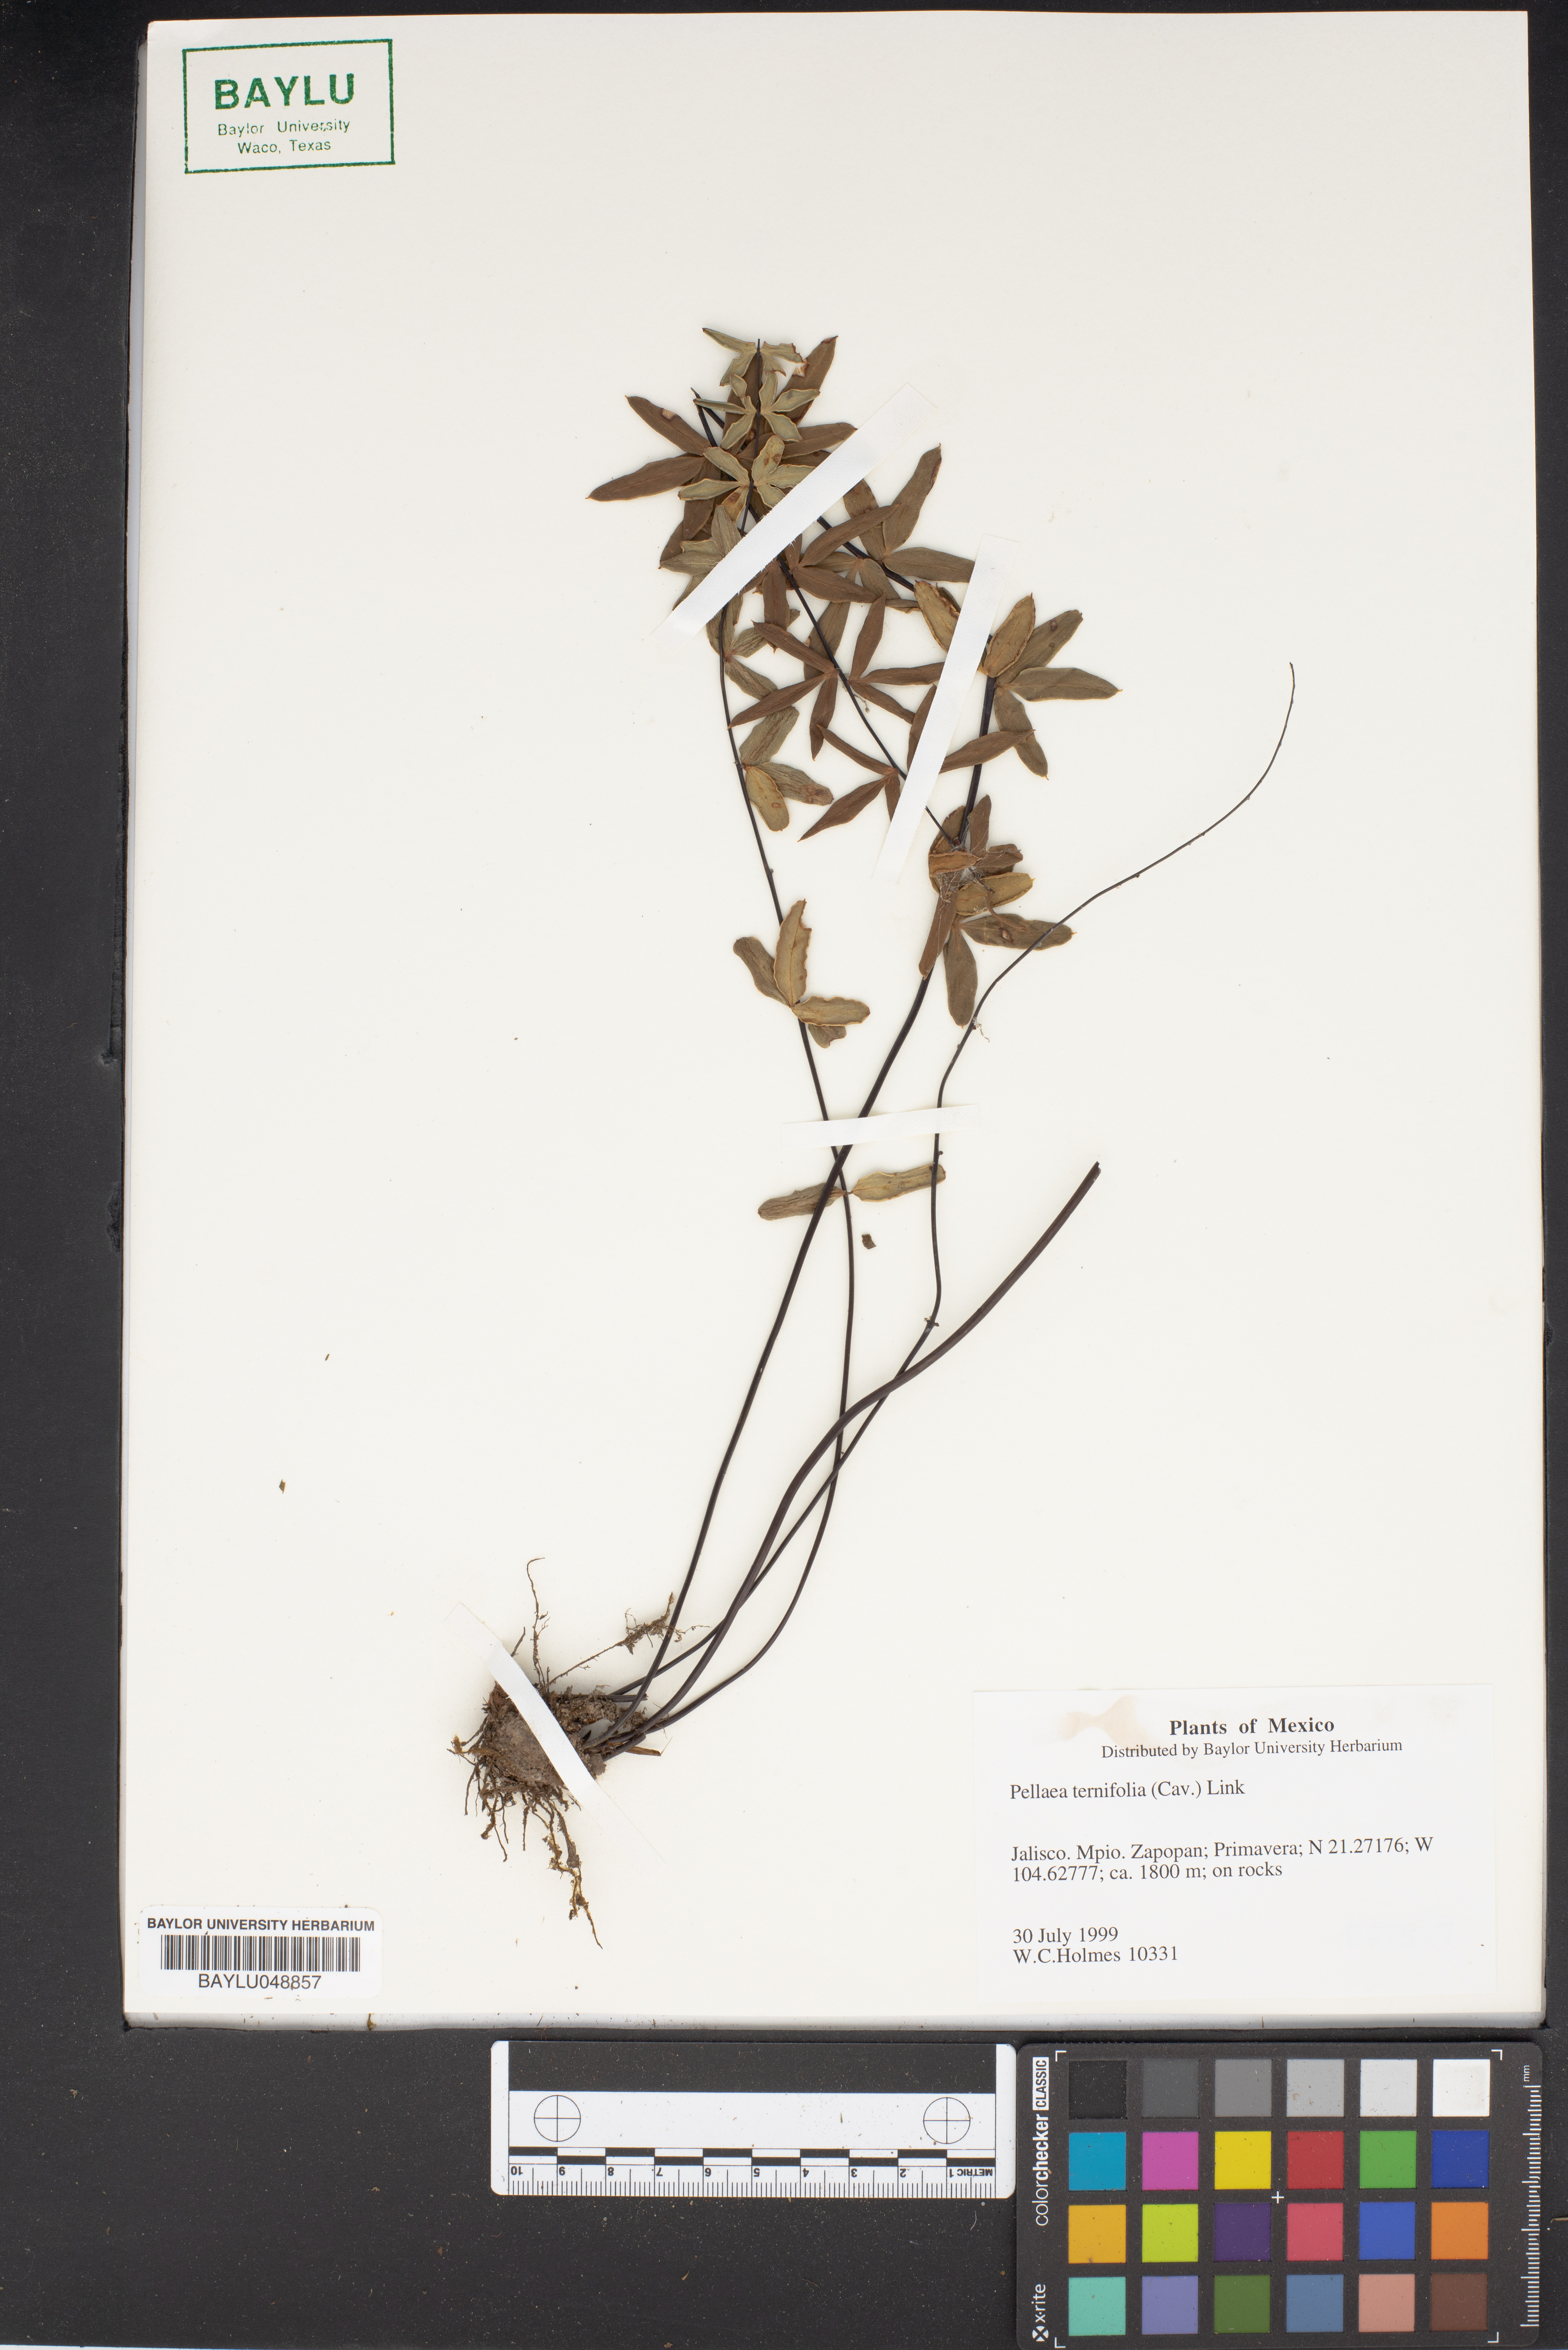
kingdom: Plantae
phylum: Tracheophyta
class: Polypodiopsida
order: Polypodiales
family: Pteridaceae
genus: Pellaea
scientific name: Pellaea ternifolia
